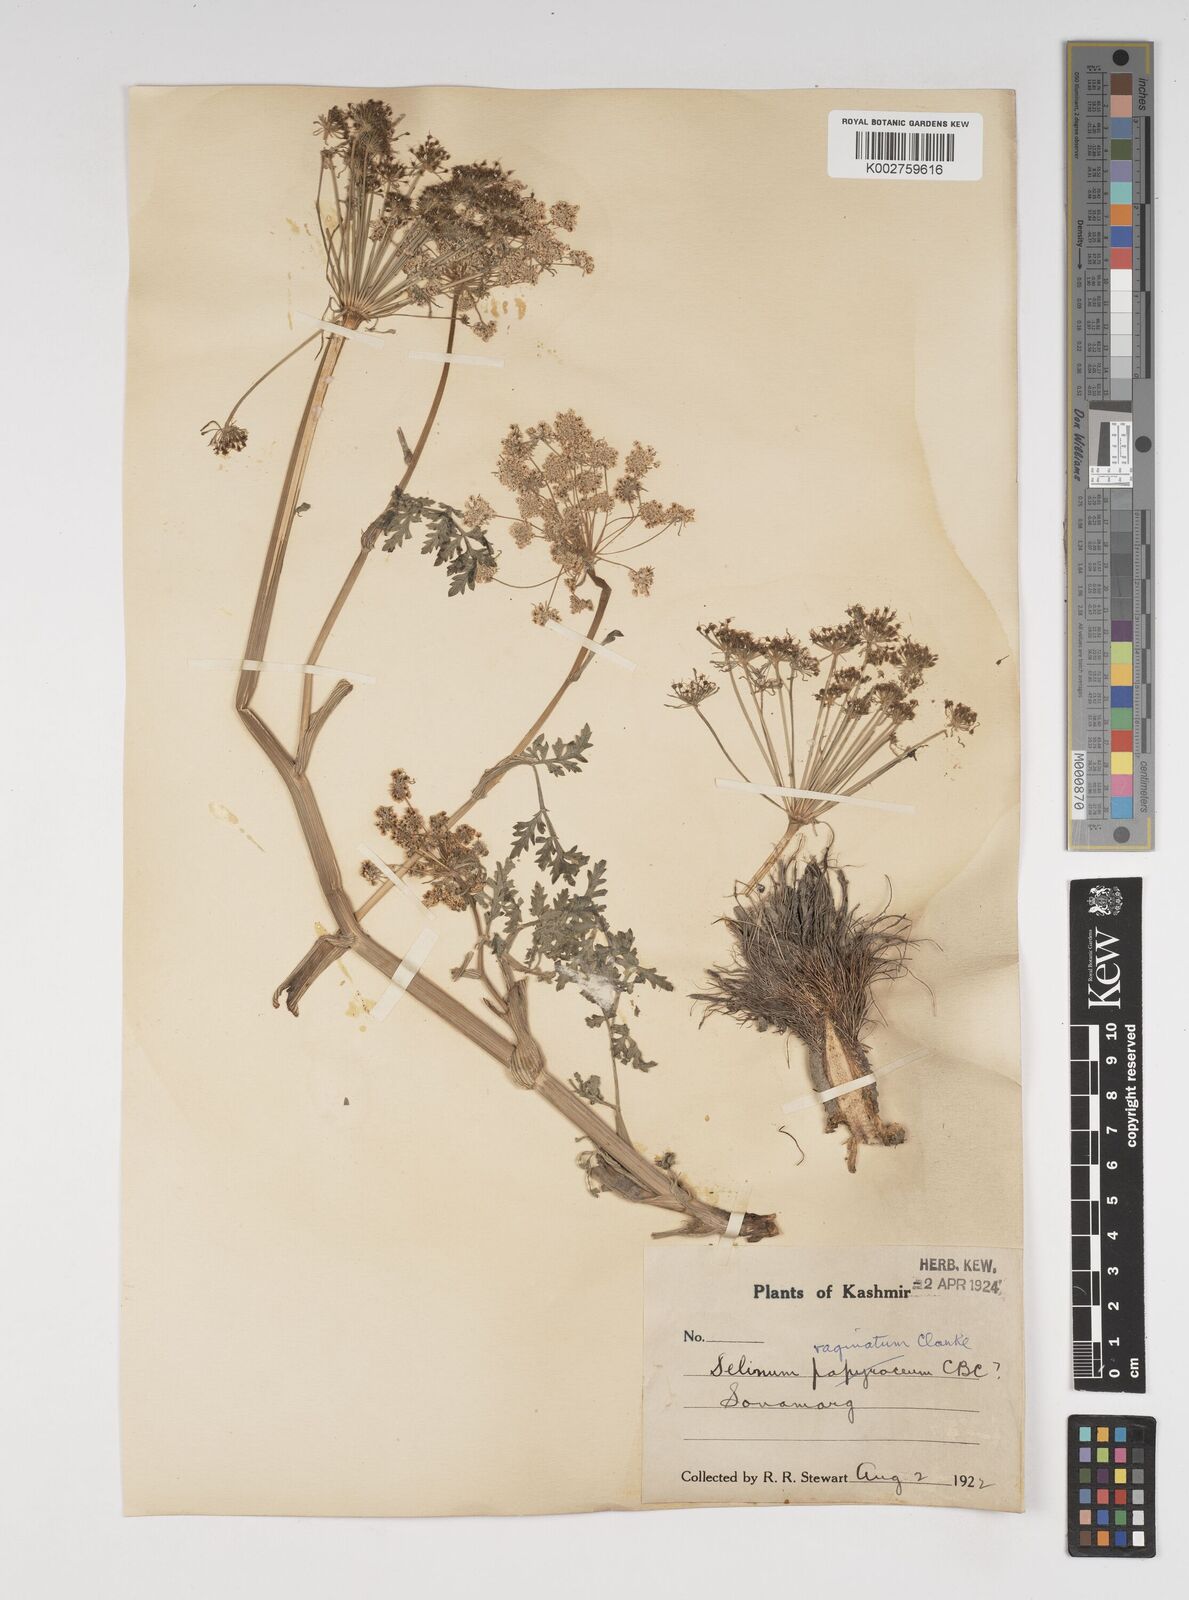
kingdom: Plantae
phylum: Tracheophyta
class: Magnoliopsida
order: Apiales
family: Apiaceae
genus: Selinum
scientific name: Selinum vaginatum
